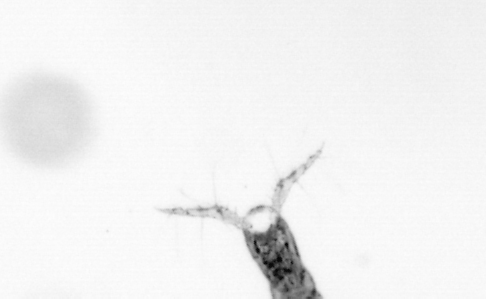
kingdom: Animalia
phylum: Arthropoda
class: Copepoda
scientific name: Copepoda
